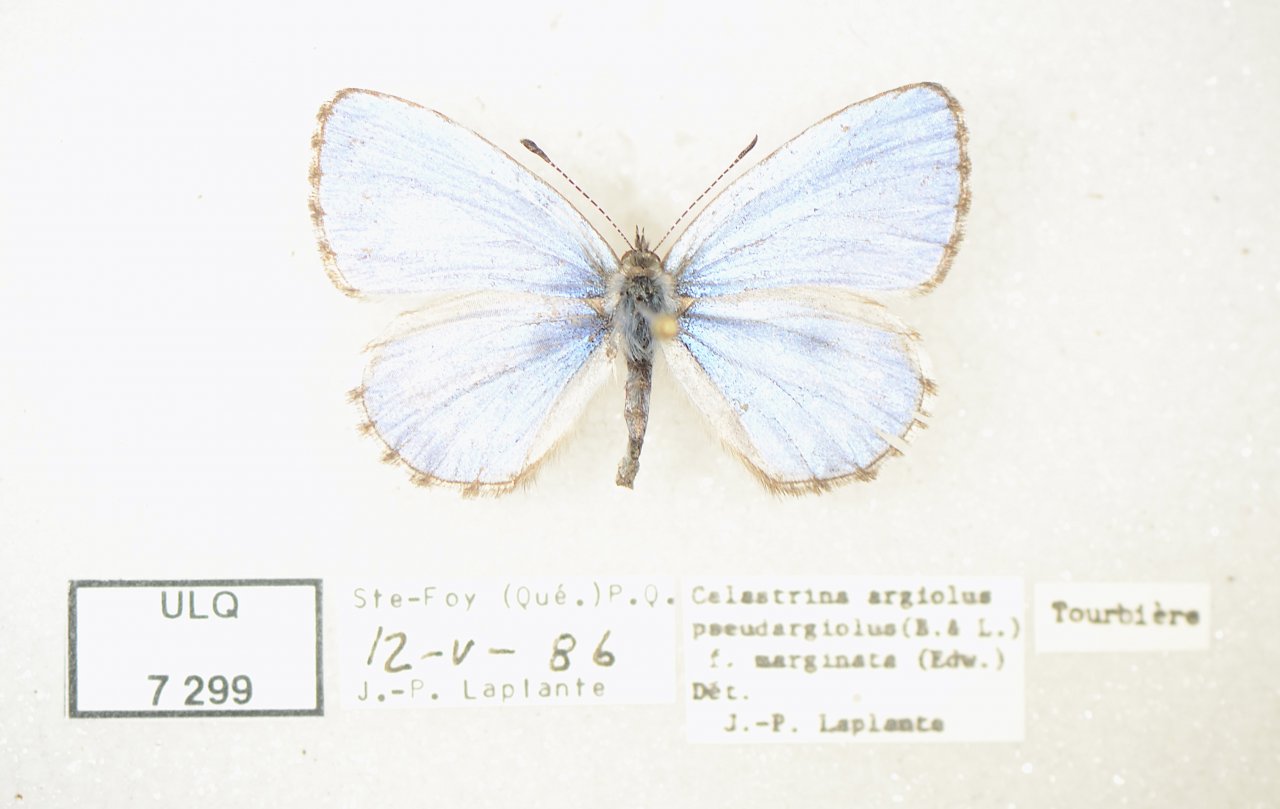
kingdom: Animalia
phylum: Arthropoda
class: Insecta
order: Lepidoptera
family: Lycaenidae
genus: Celastrina
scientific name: Celastrina lucia
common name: Northern Spring Azure
